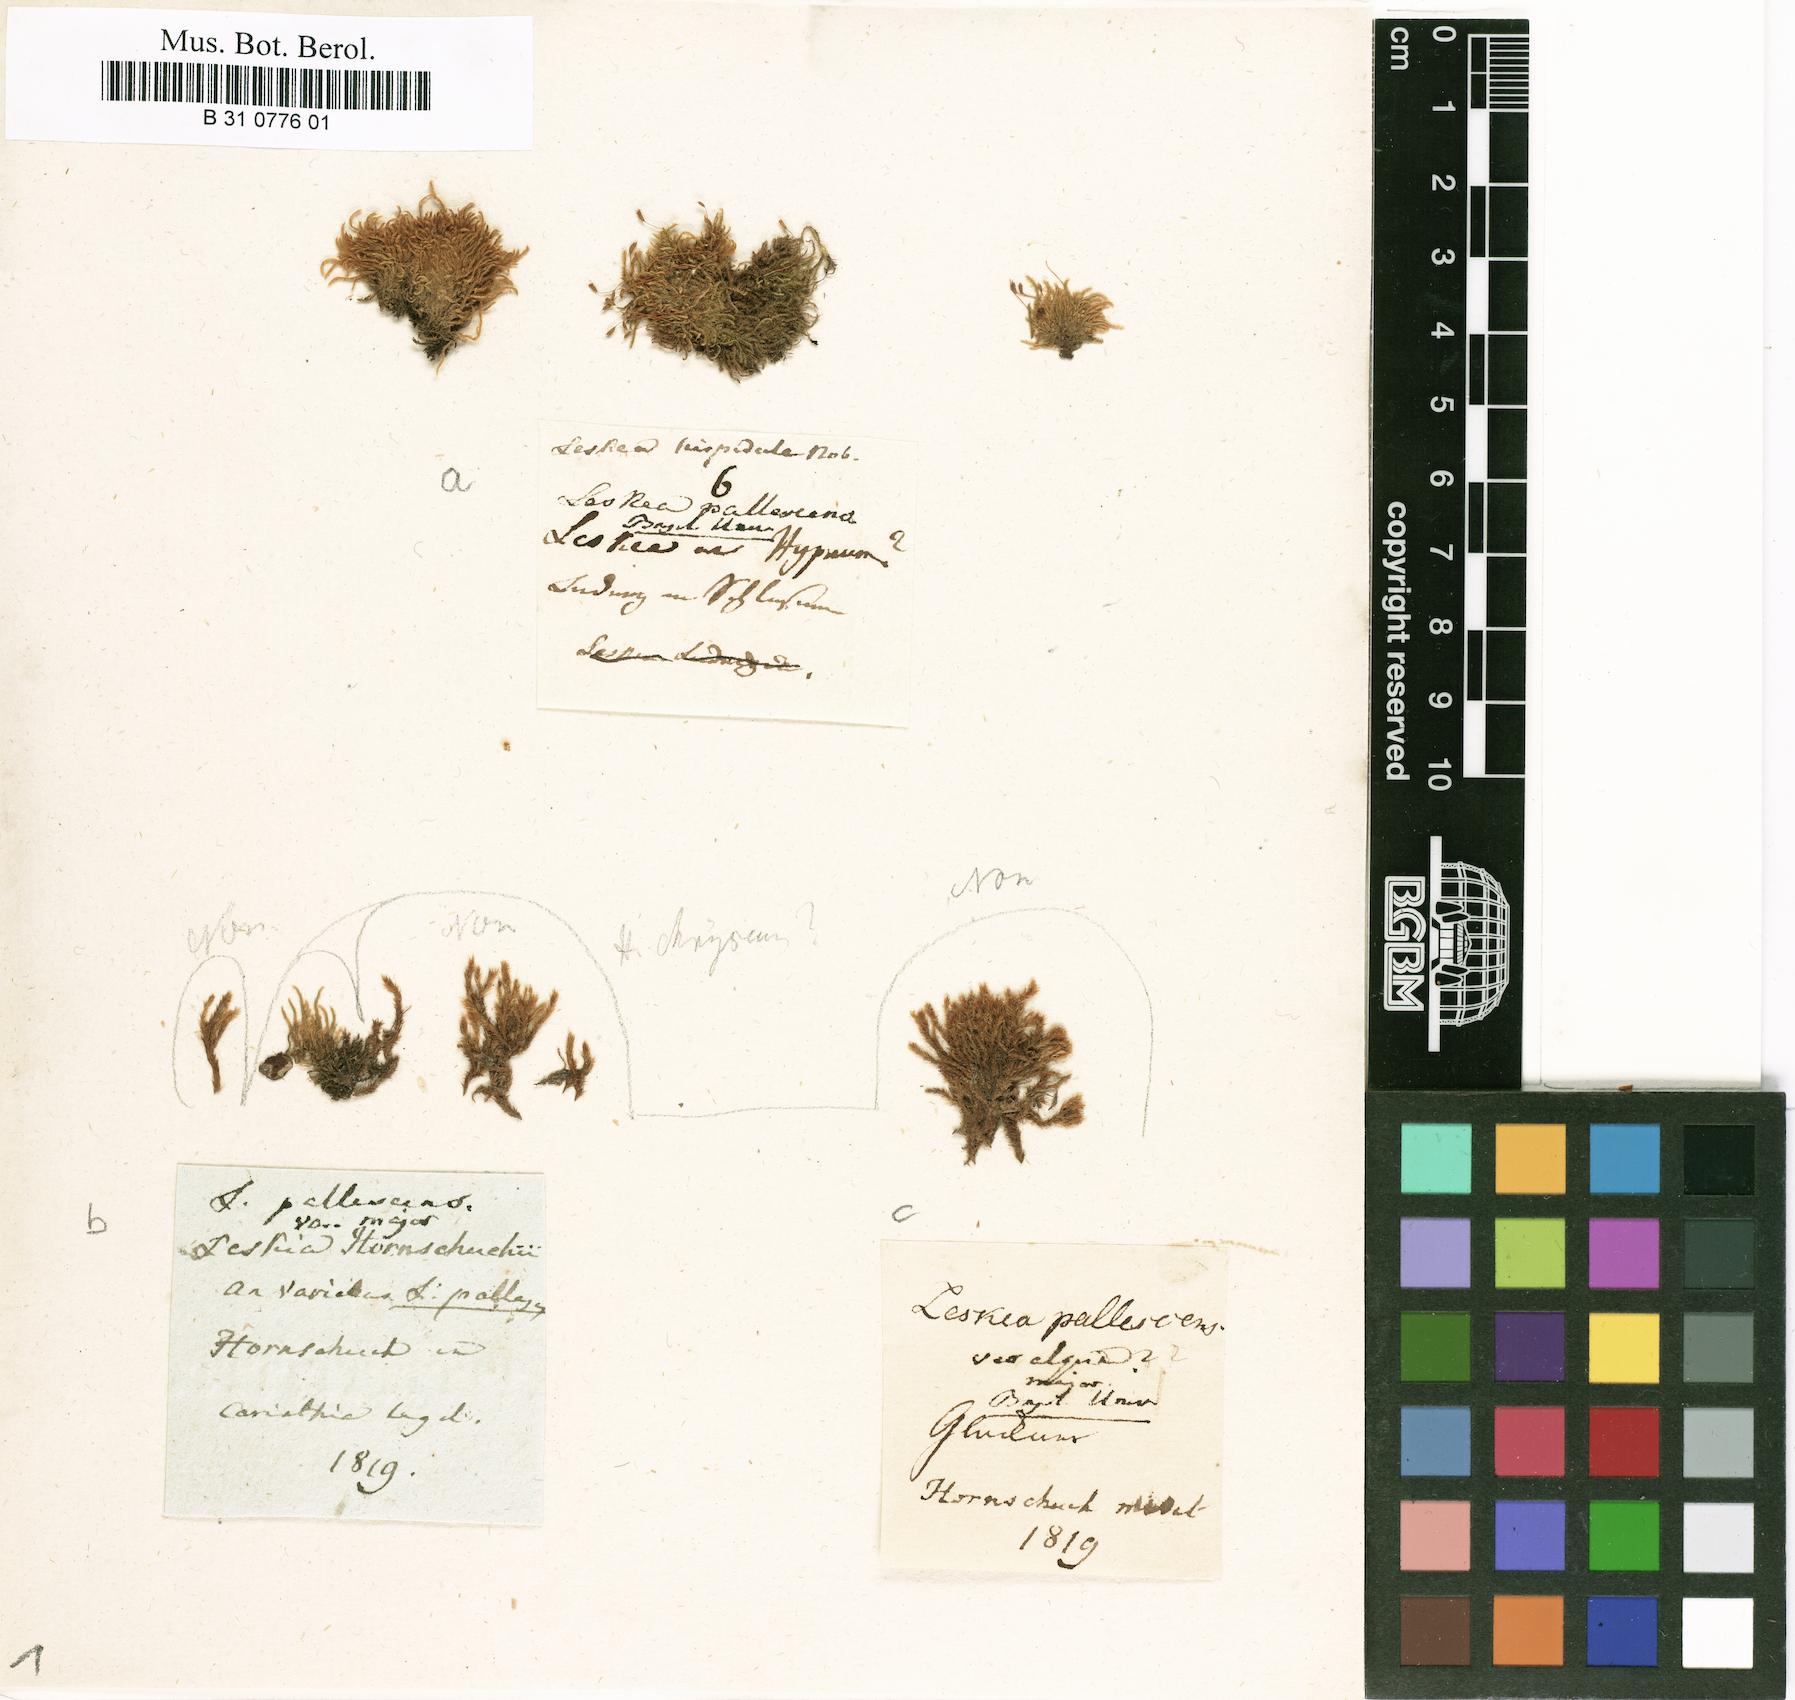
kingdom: Plantae
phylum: Bryophyta
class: Bryopsida
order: Hypnales
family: Jocheniaceae
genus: Jochenia
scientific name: Jochenia pallescens
